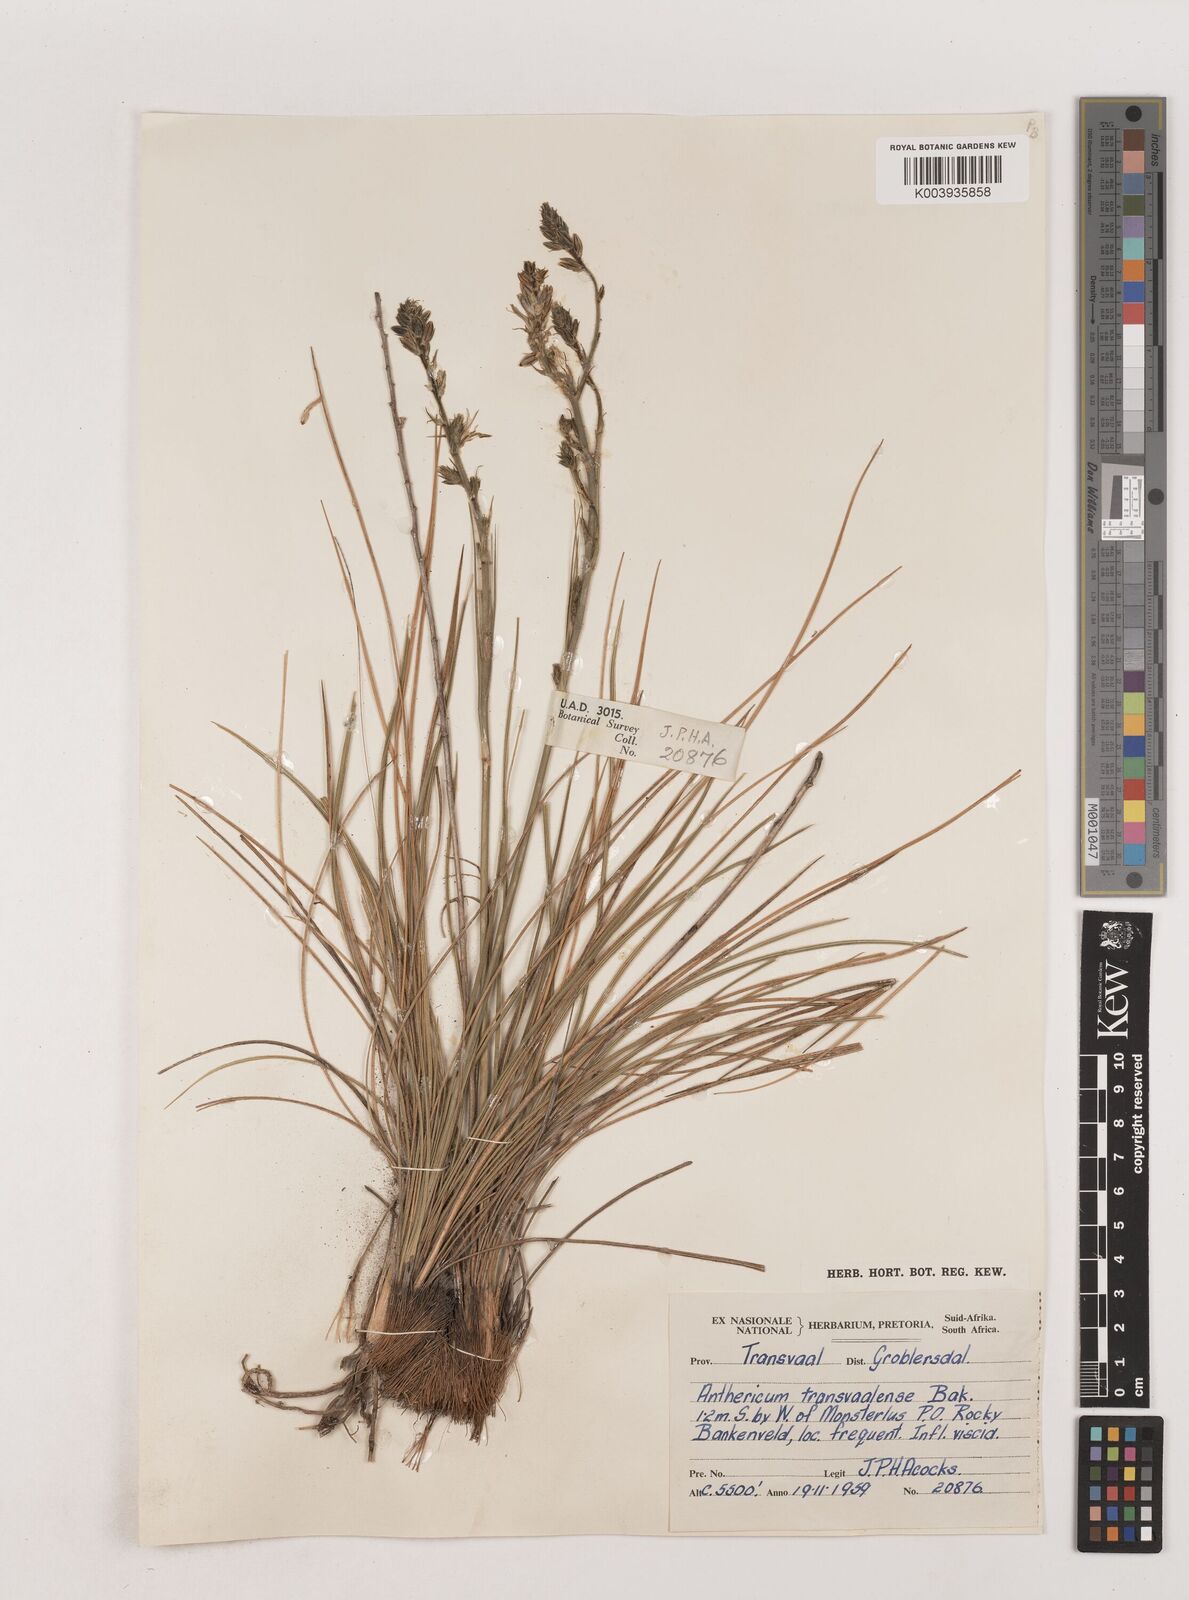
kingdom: Plantae
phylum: Tracheophyta
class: Liliopsida
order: Asparagales
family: Asparagaceae
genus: Chlorophytum
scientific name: Chlorophytum transvaalense
